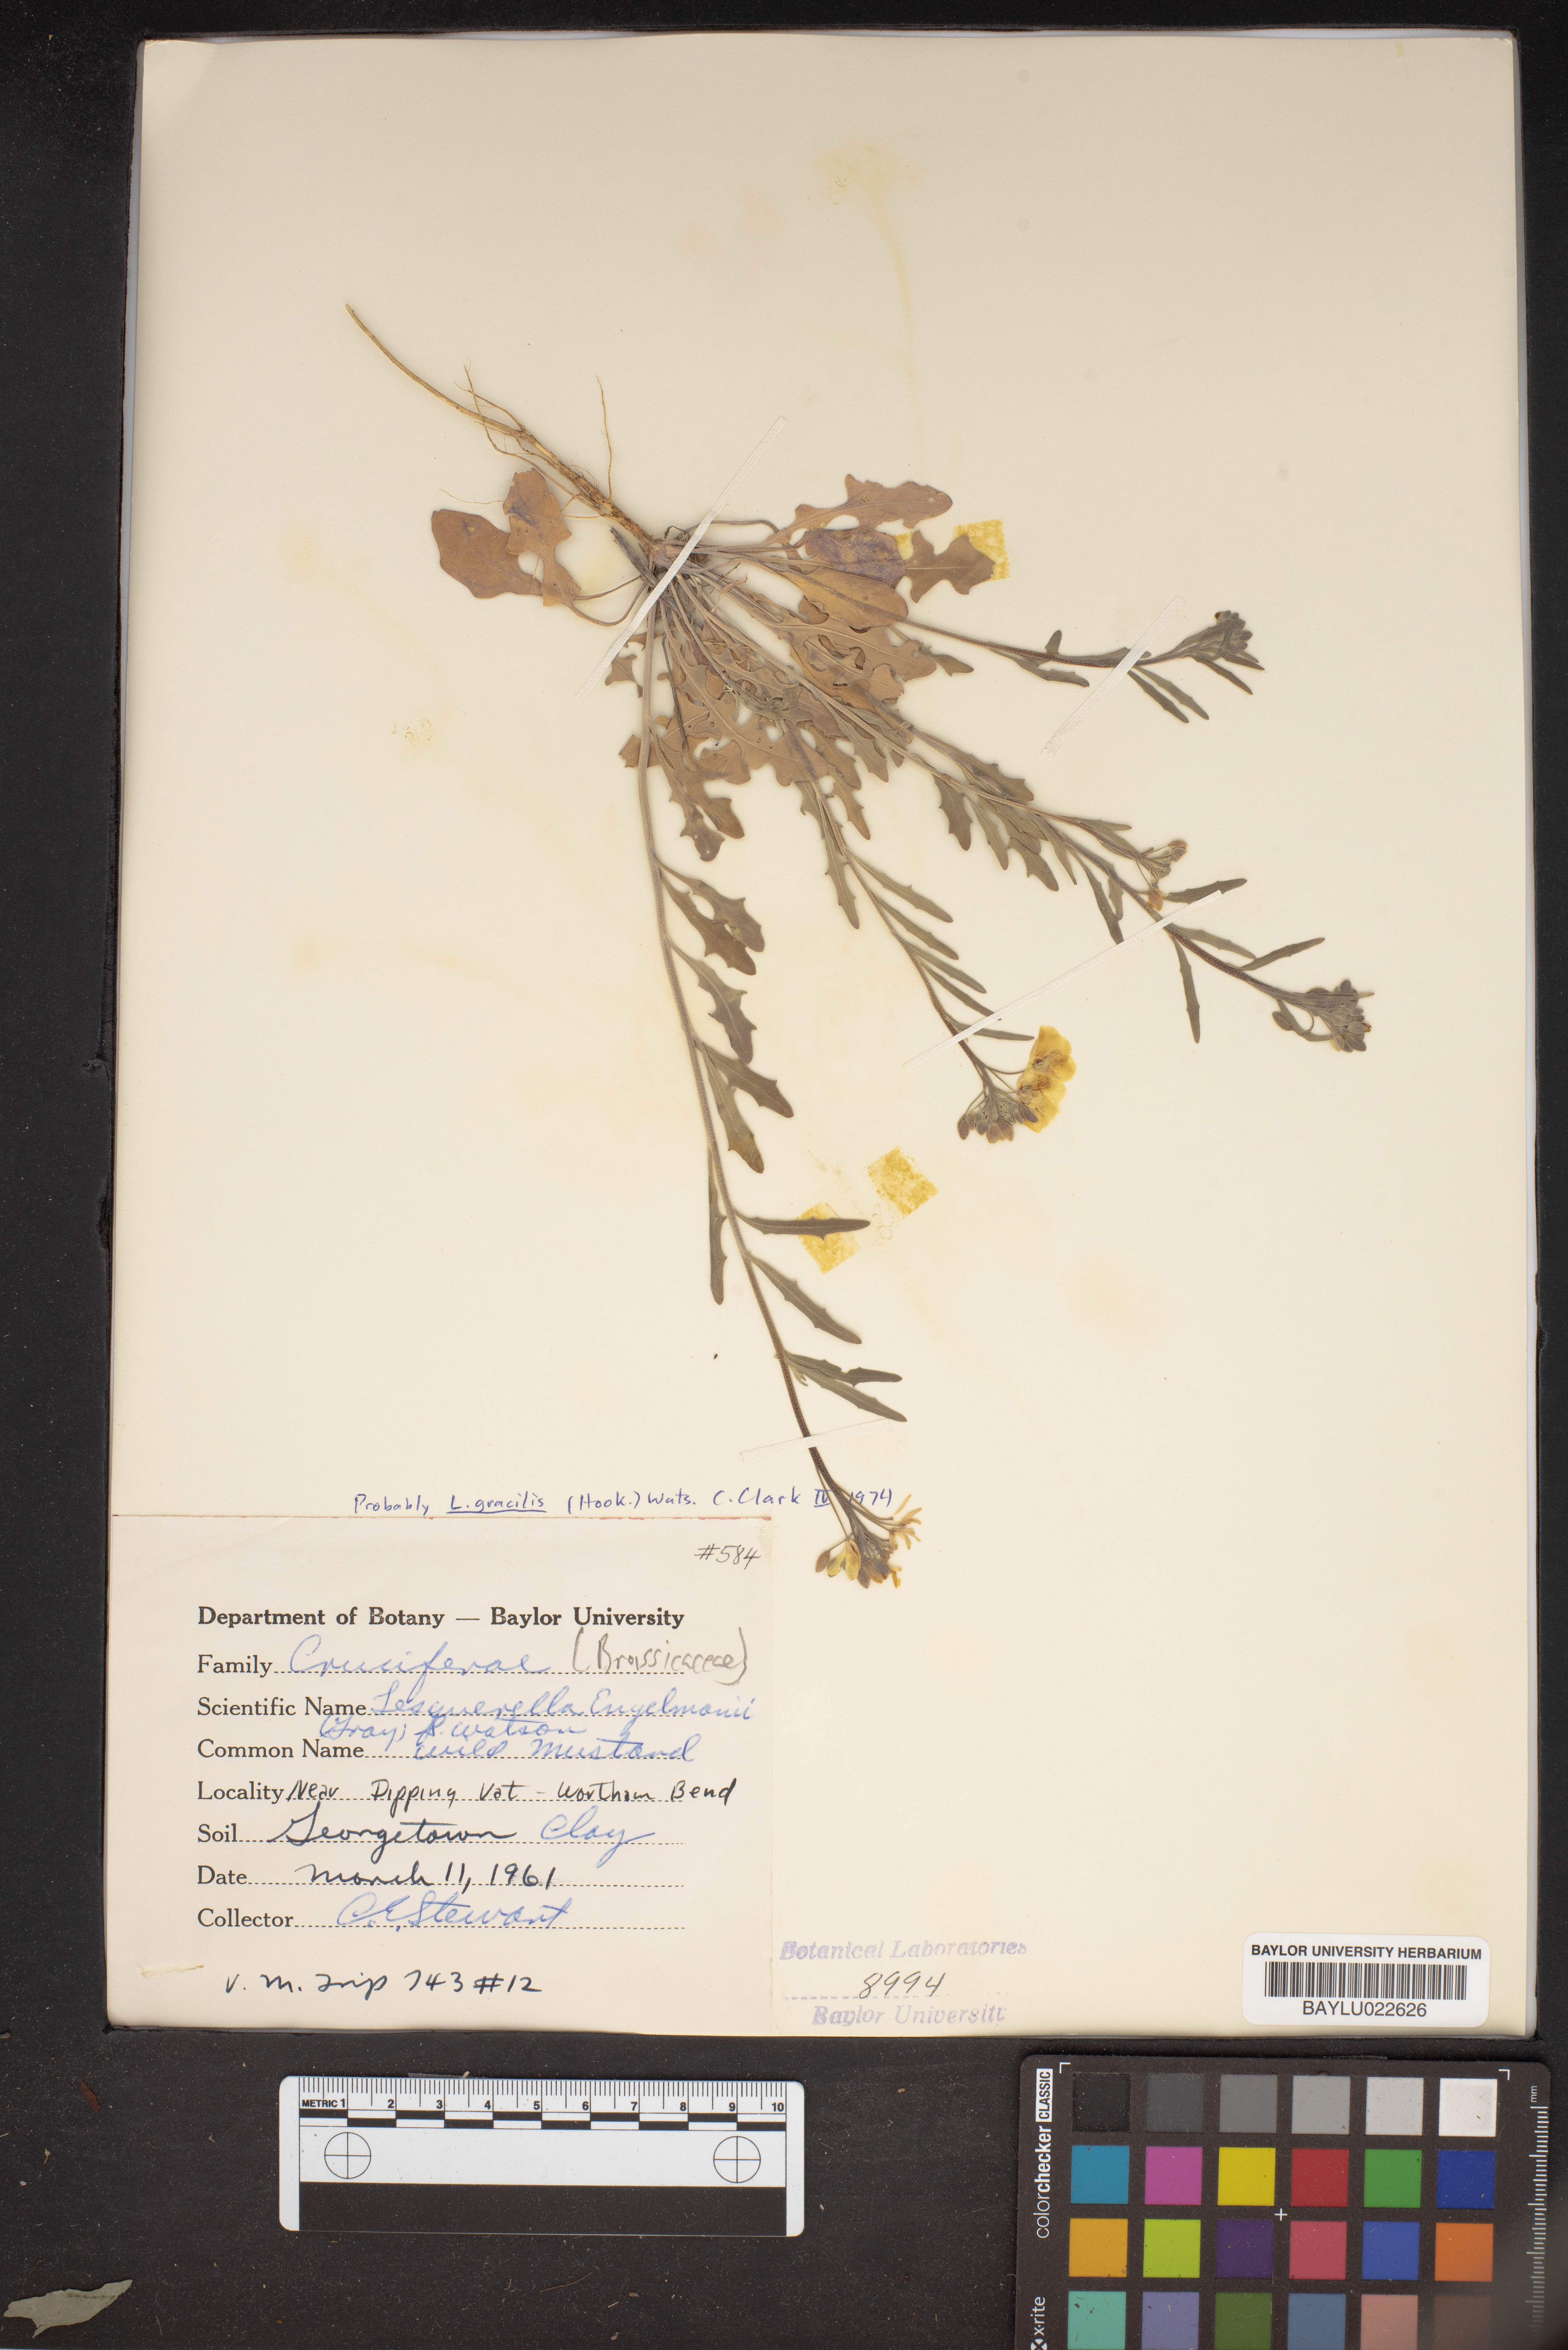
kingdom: Plantae
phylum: Tracheophyta
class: Magnoliopsida
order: Brassicales
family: Brassicaceae
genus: Physaria
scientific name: Physaria engelmannii
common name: Engelmann's bladderpod
